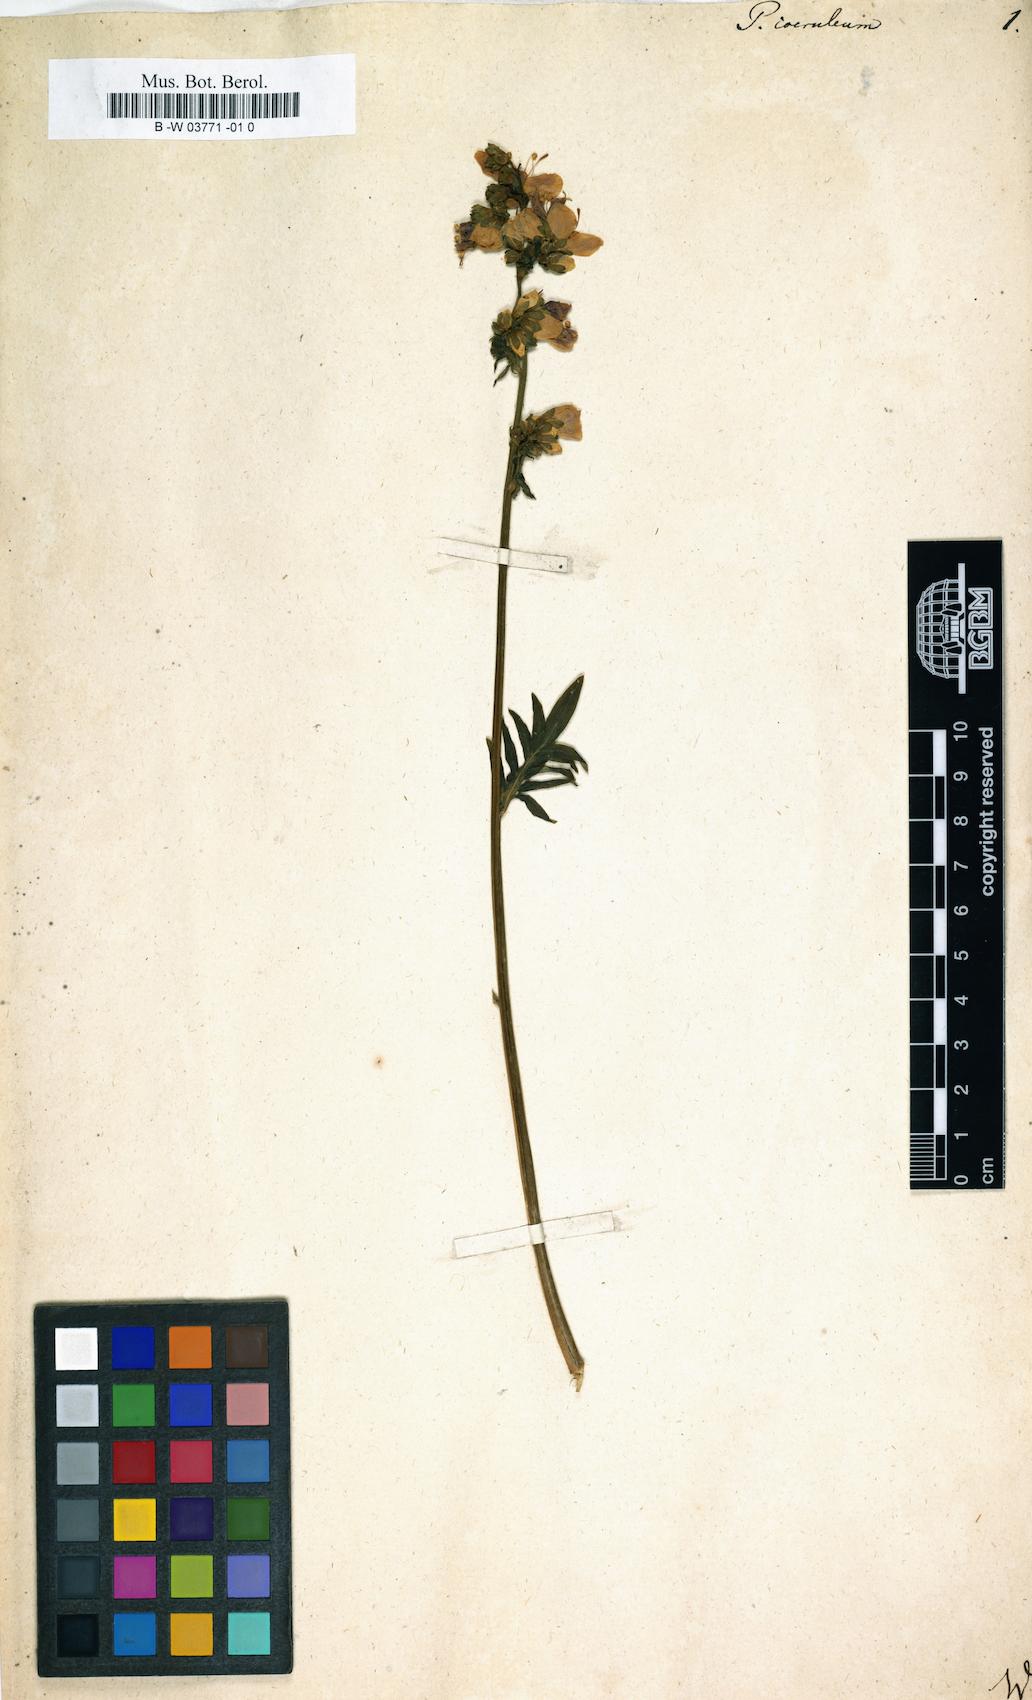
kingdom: Plantae
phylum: Tracheophyta
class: Magnoliopsida
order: Ericales
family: Polemoniaceae
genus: Polemonium
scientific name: Polemonium caeruleum
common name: Jacob's-ladder
